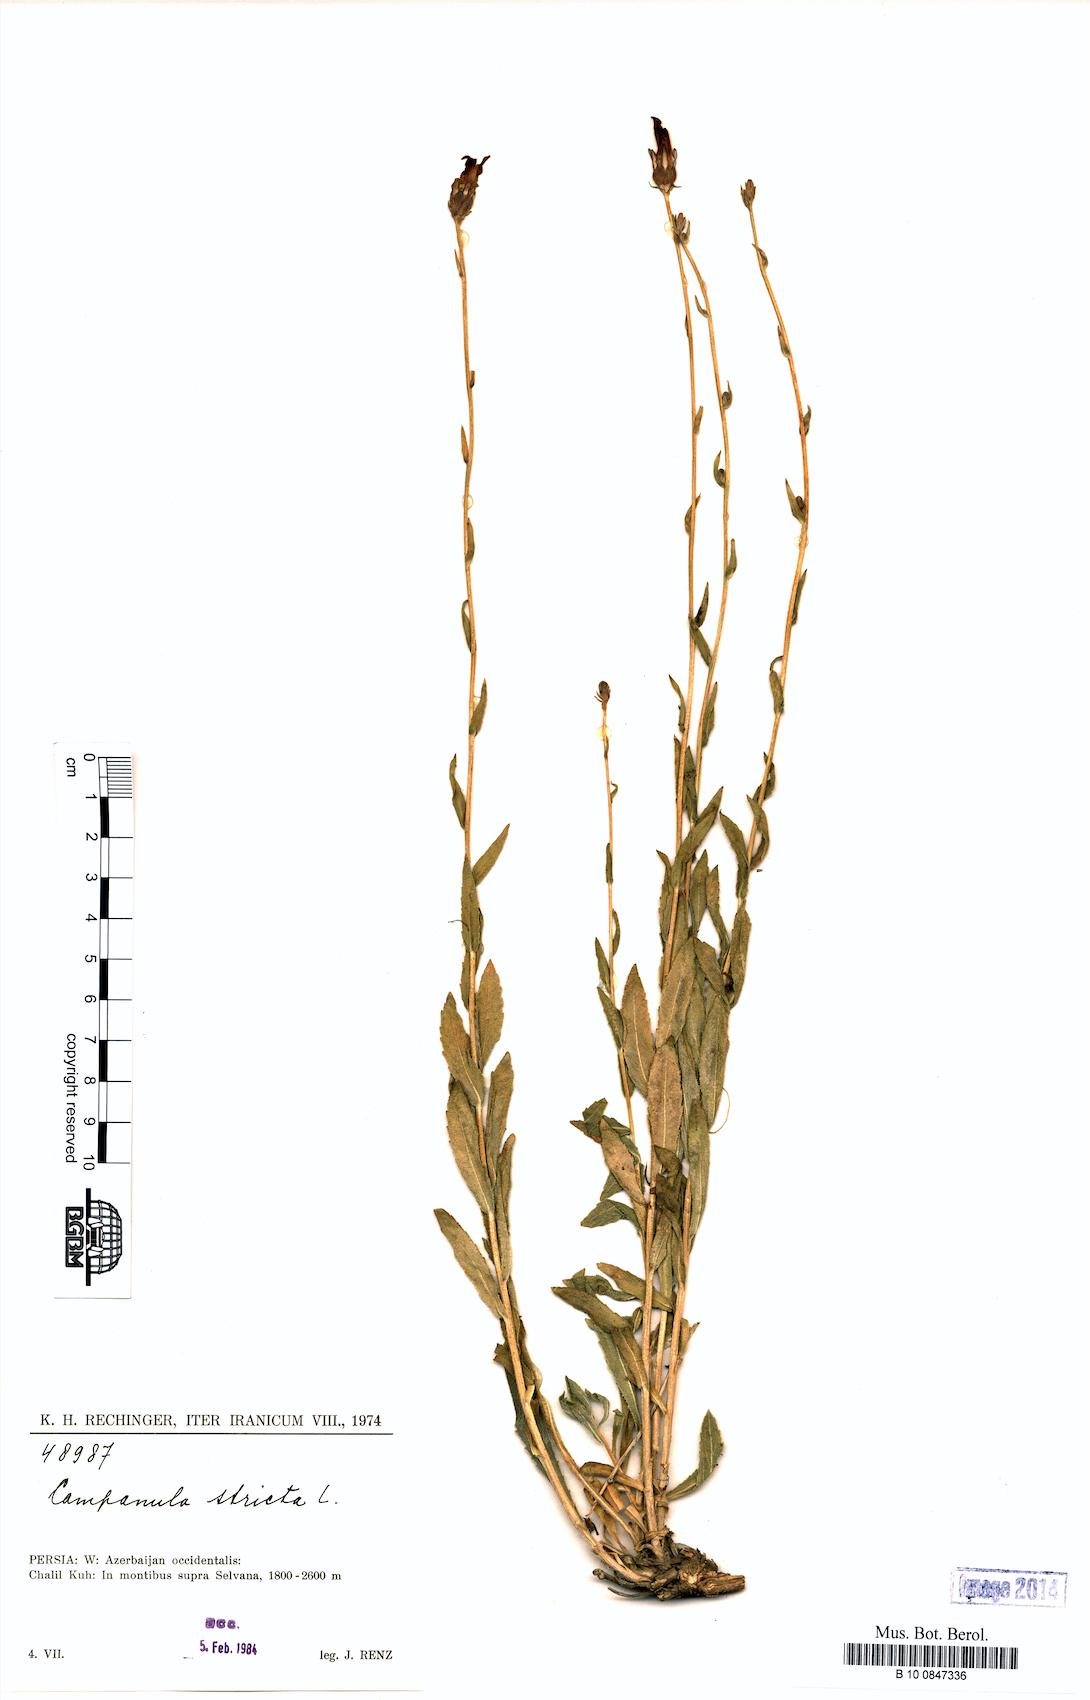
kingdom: Plantae
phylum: Tracheophyta
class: Magnoliopsida
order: Asterales
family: Campanulaceae
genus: Campanula
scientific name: Campanula stricta
